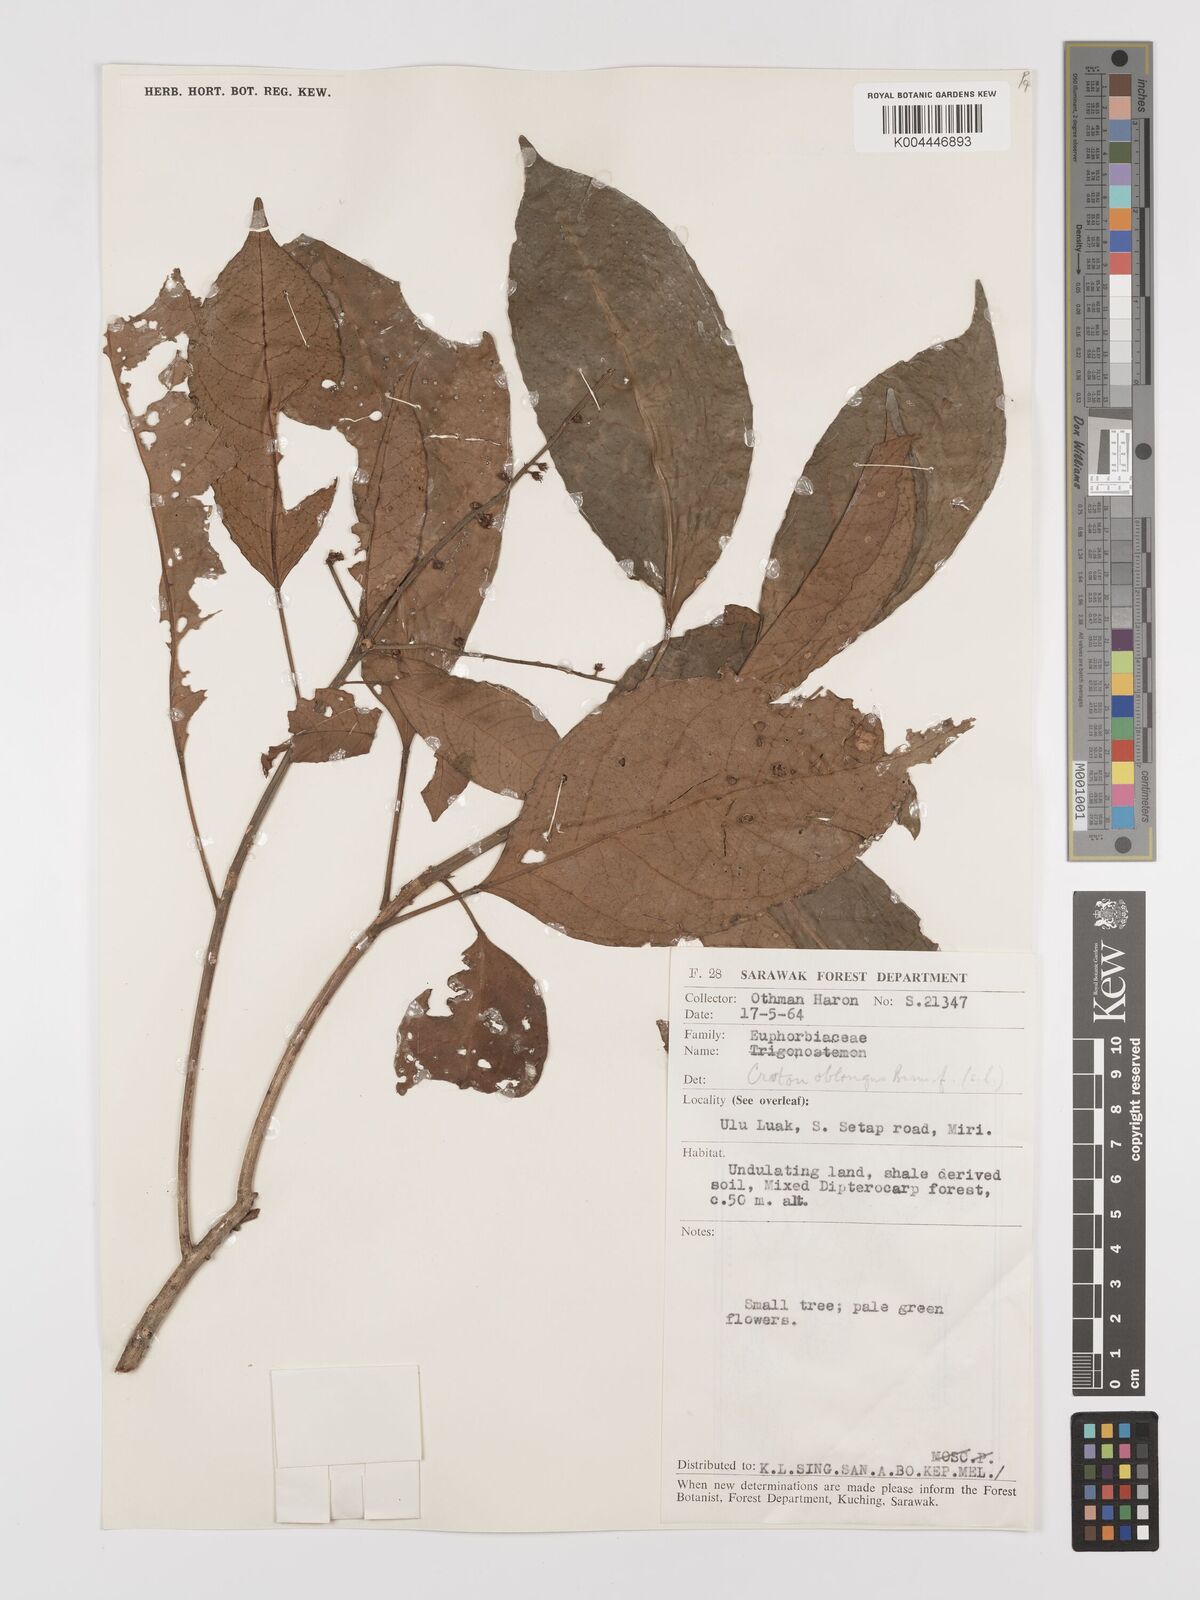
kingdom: Plantae
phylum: Tracheophyta
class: Magnoliopsida
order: Malpighiales
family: Euphorbiaceae
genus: Croton
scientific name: Croton oblongus
